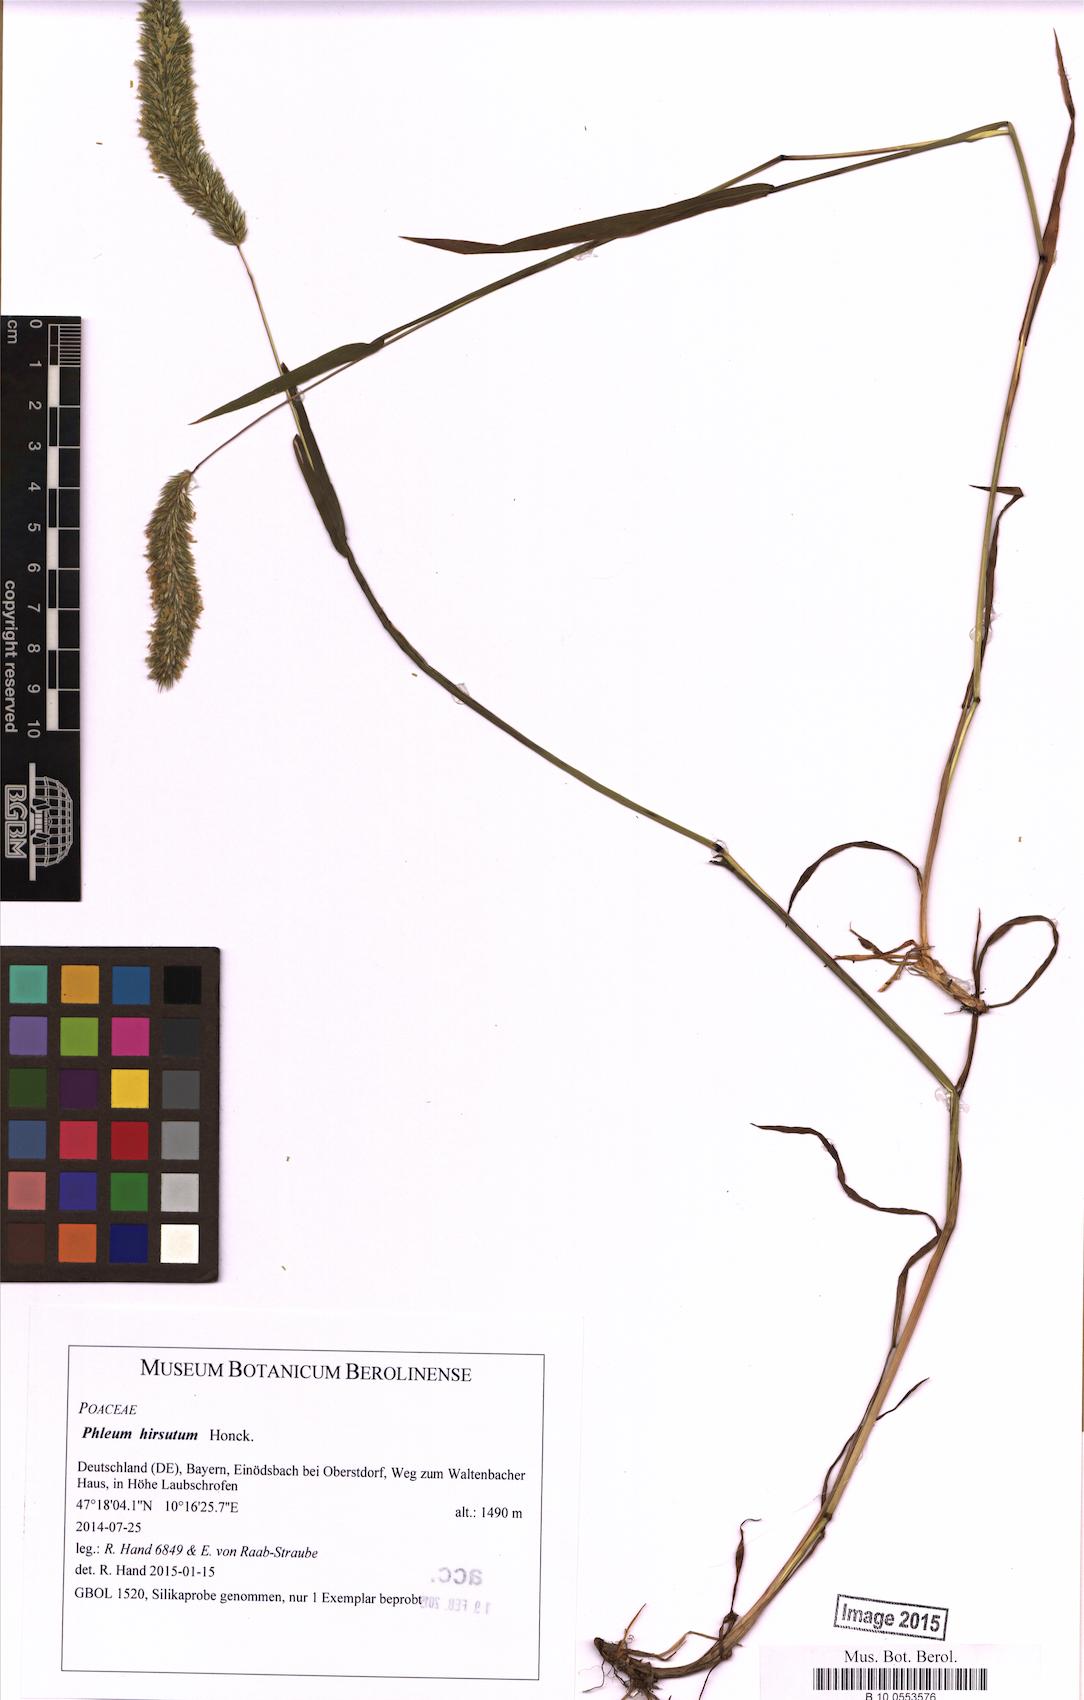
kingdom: Plantae
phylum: Tracheophyta
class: Liliopsida
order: Poales
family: Poaceae
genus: Phleum
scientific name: Phleum hirsutum
